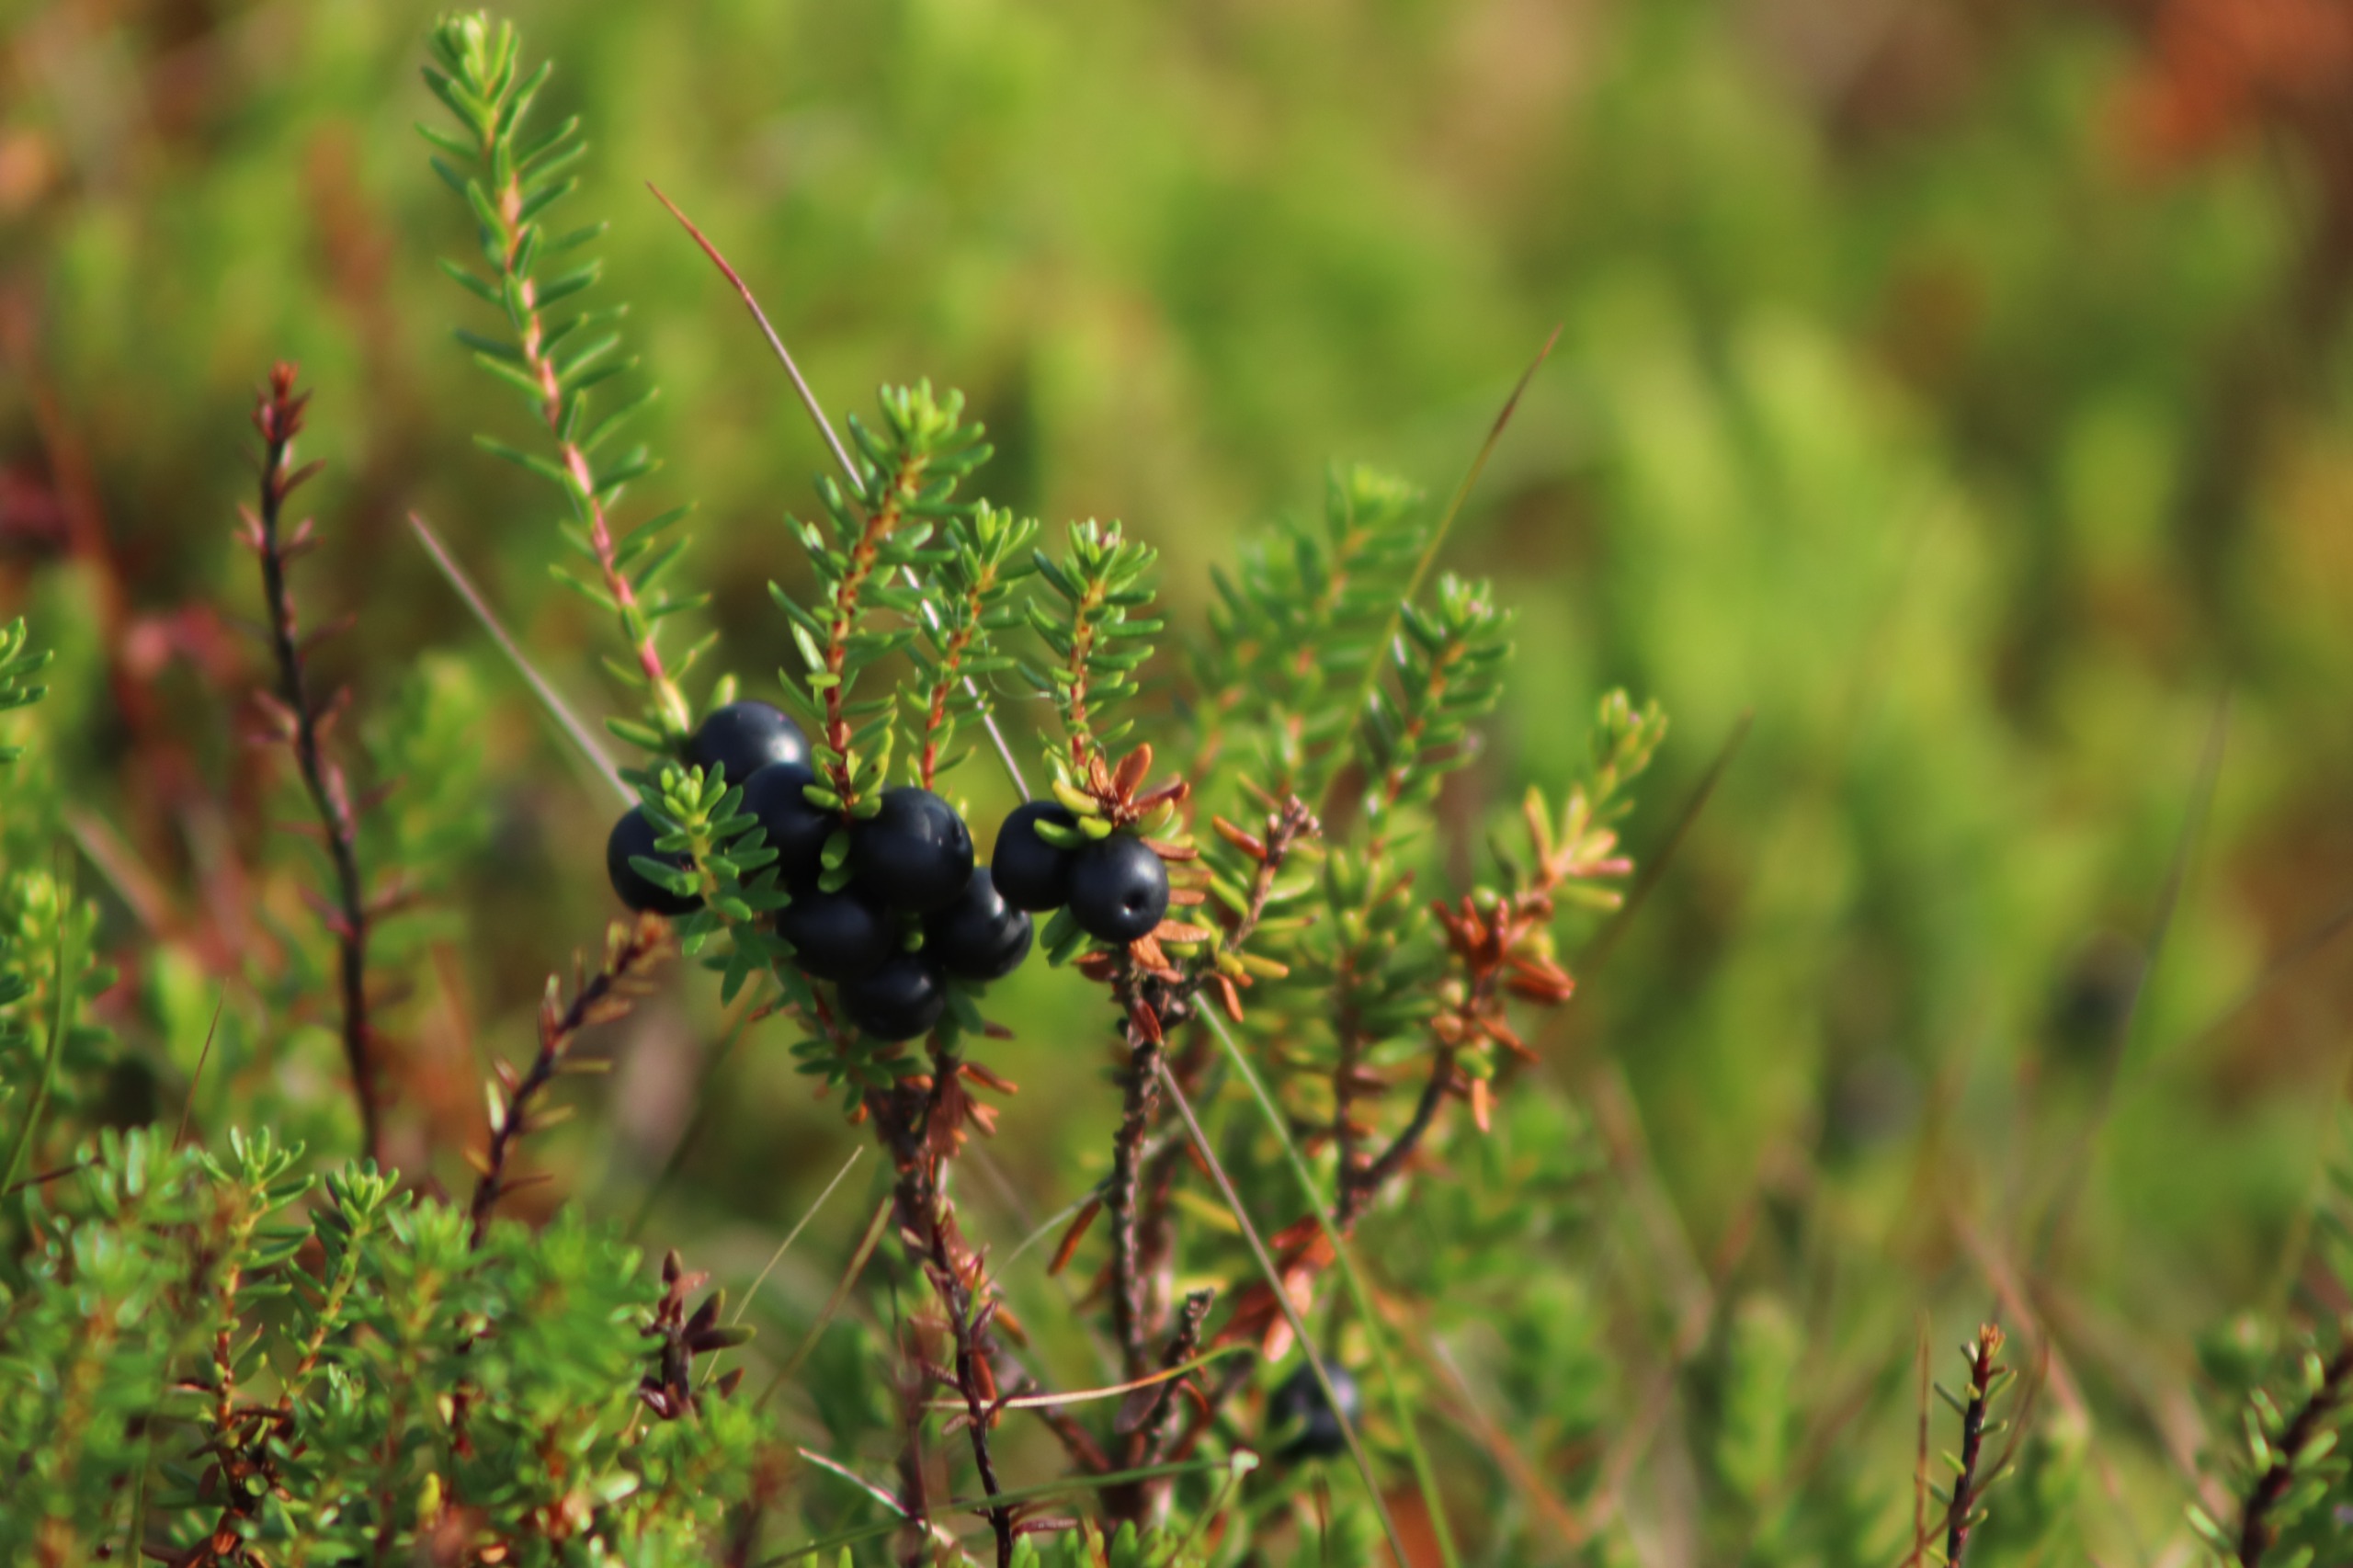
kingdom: Plantae
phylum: Tracheophyta
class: Magnoliopsida
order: Ericales
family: Ericaceae
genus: Empetrum
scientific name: Empetrum nigrum
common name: Revling
